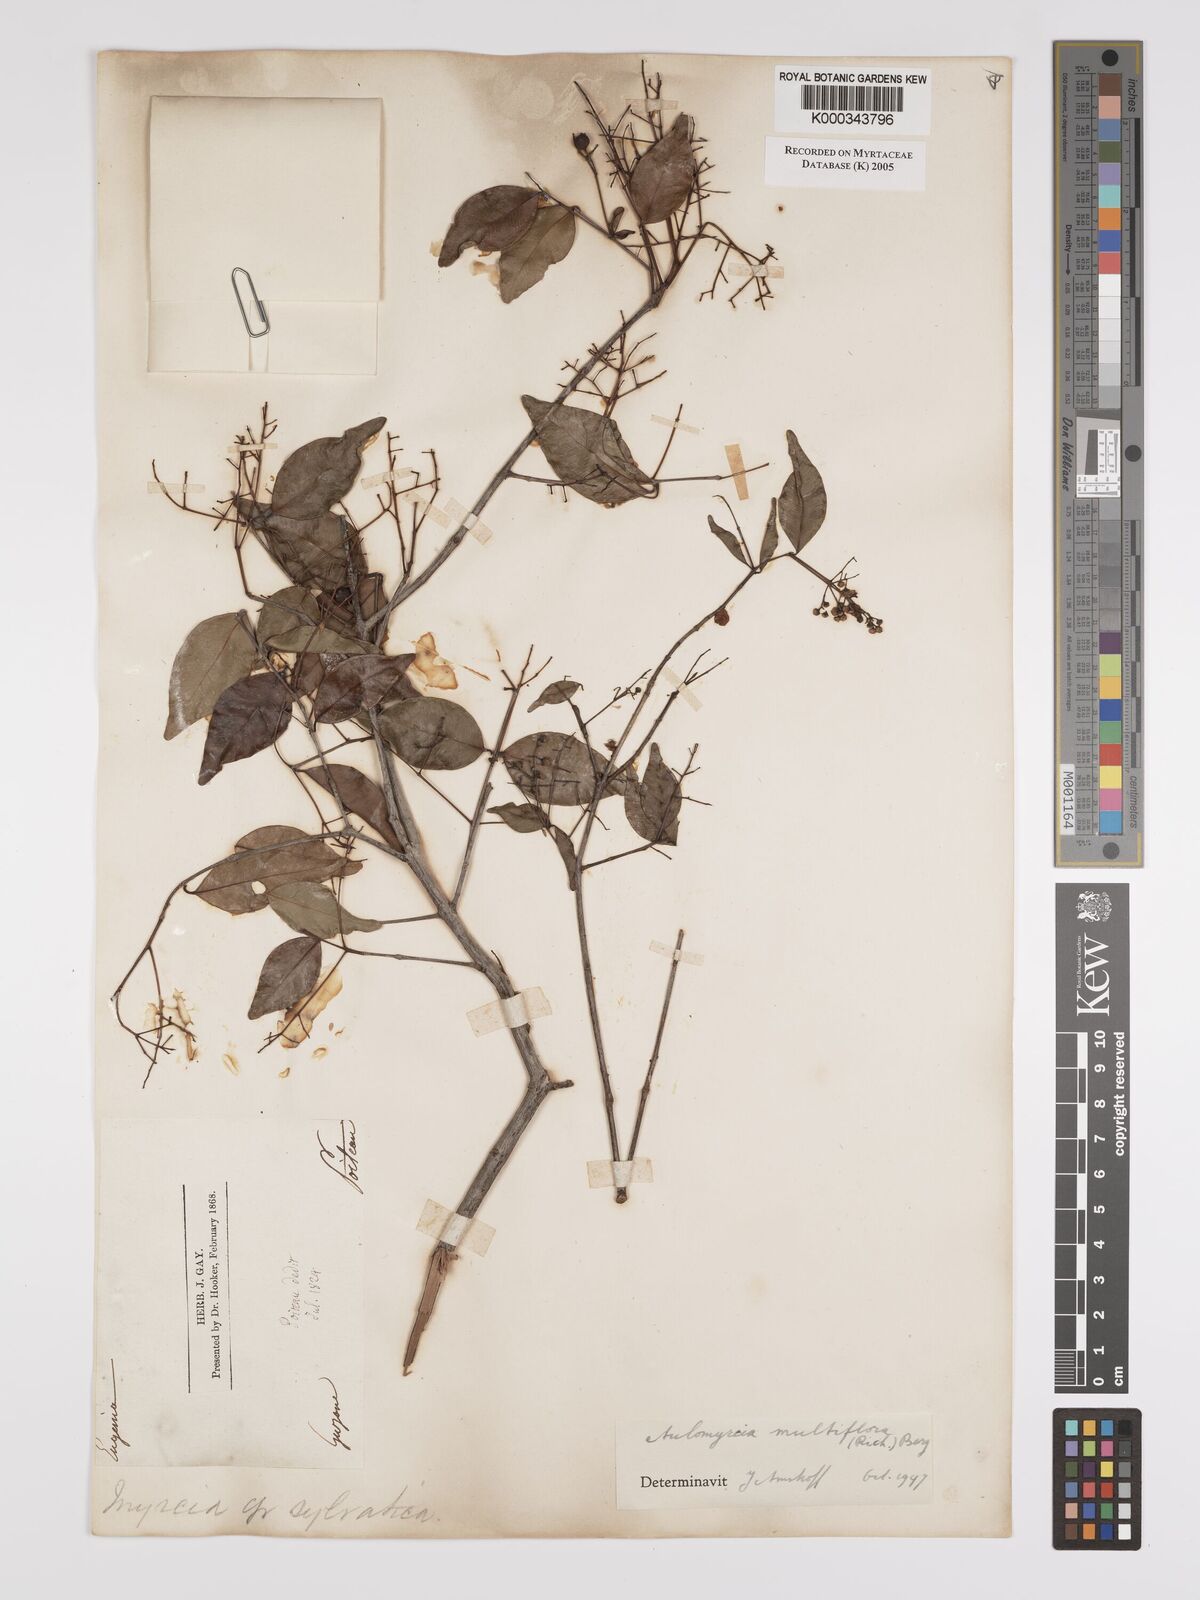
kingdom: Plantae
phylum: Tracheophyta
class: Magnoliopsida
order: Myrtales
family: Myrtaceae
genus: Myrcia
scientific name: Myrcia multiflora
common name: Pedra hume
